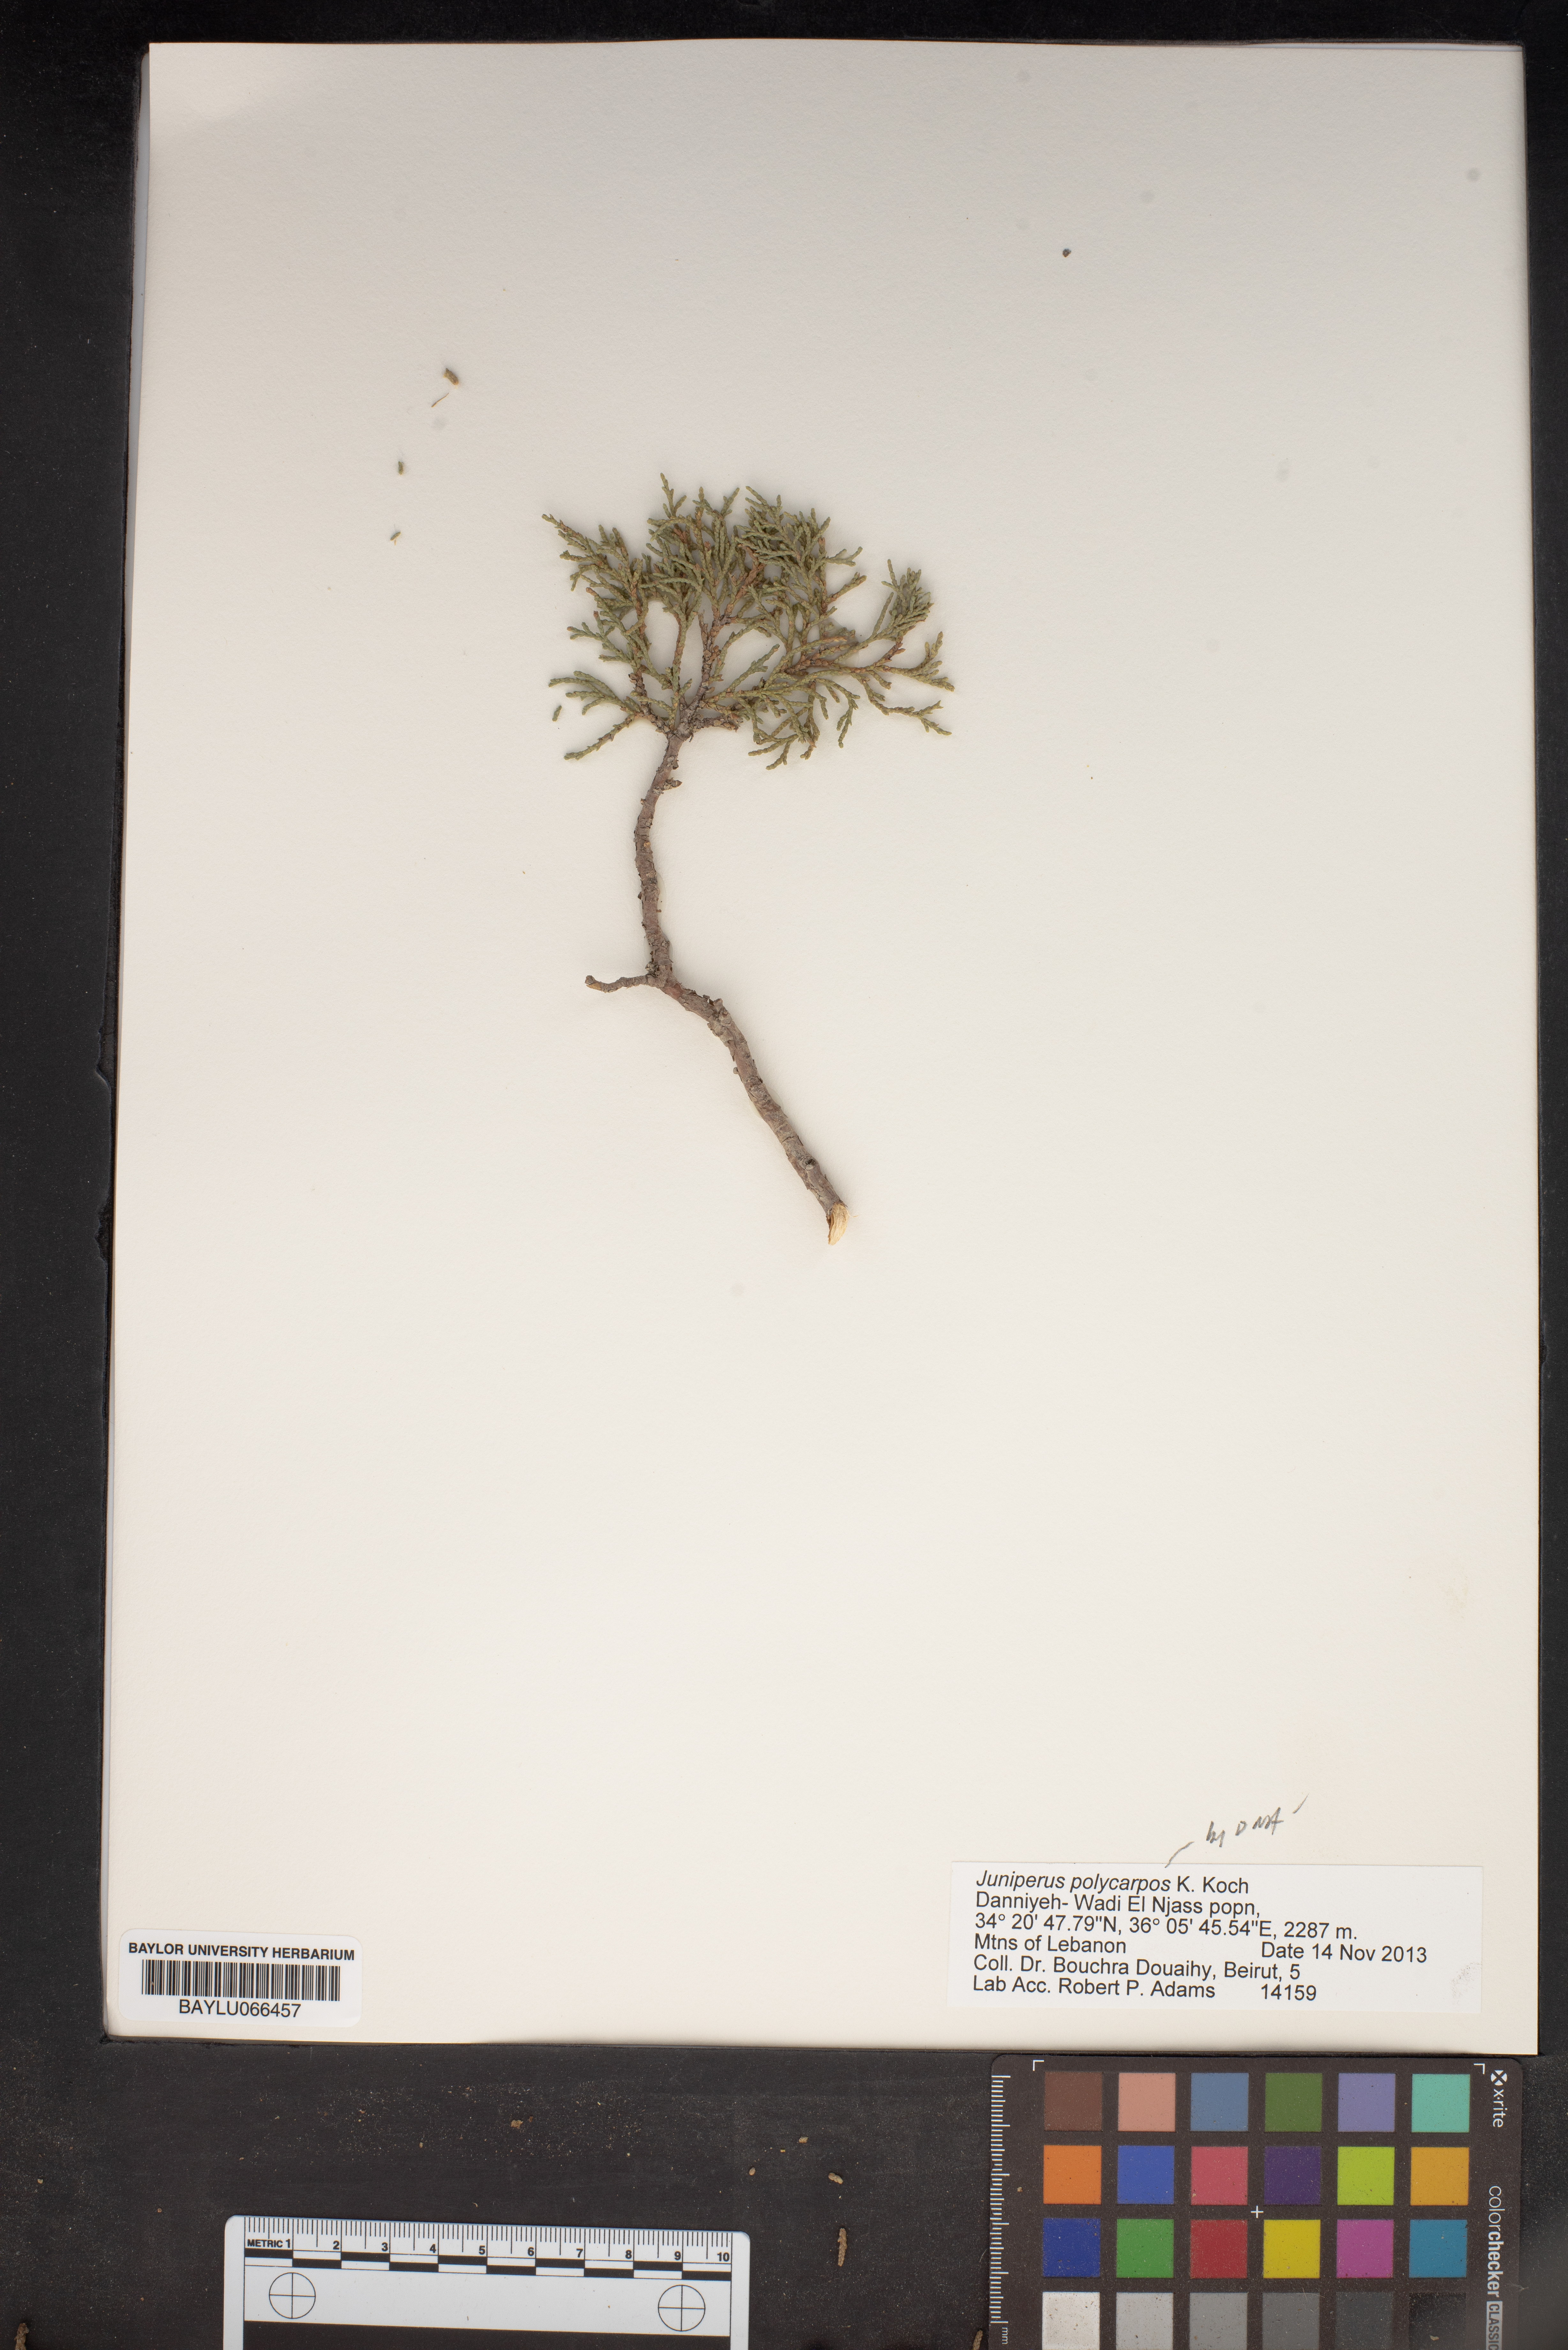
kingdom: Plantae
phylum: Tracheophyta
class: Pinopsida
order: Pinales
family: Cupressaceae
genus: Juniperus
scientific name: Juniperus excelsa
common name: Crimean juniper
